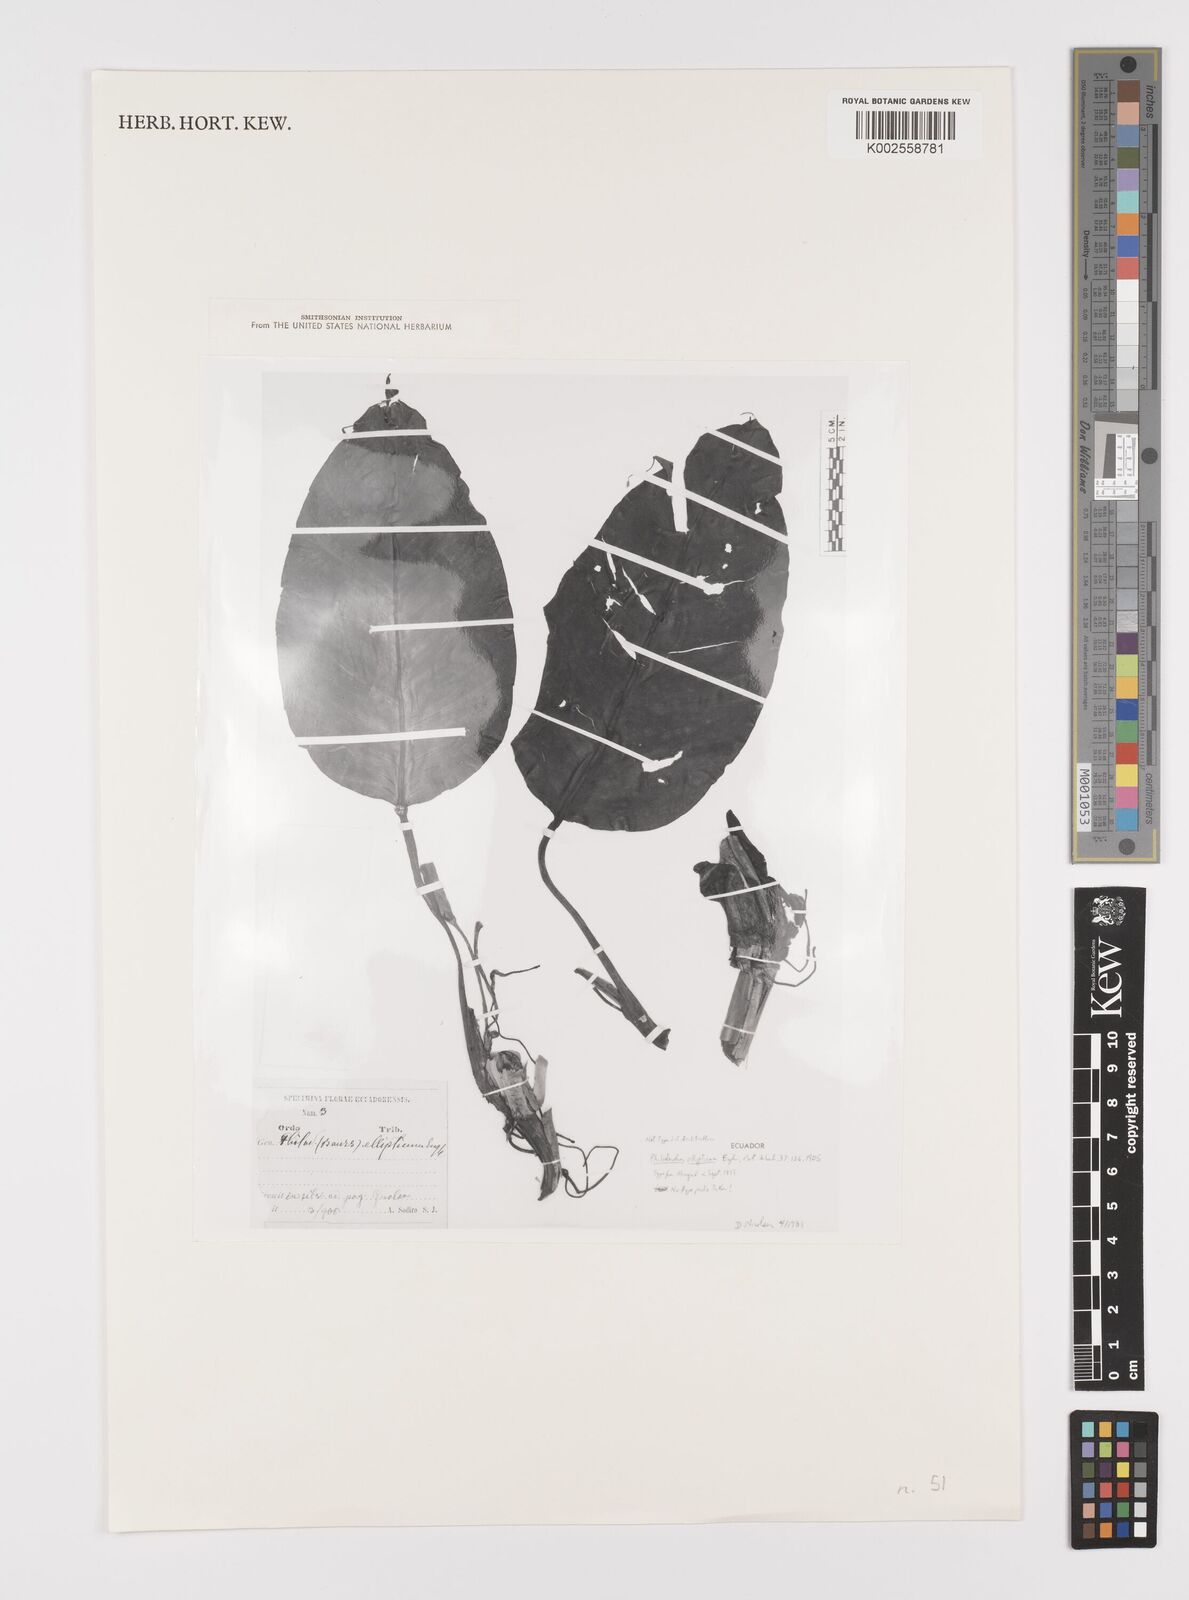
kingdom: Plantae
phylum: Tracheophyta
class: Liliopsida
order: Alismatales
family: Araceae
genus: Philodendron
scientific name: Philodendron oligospermum
